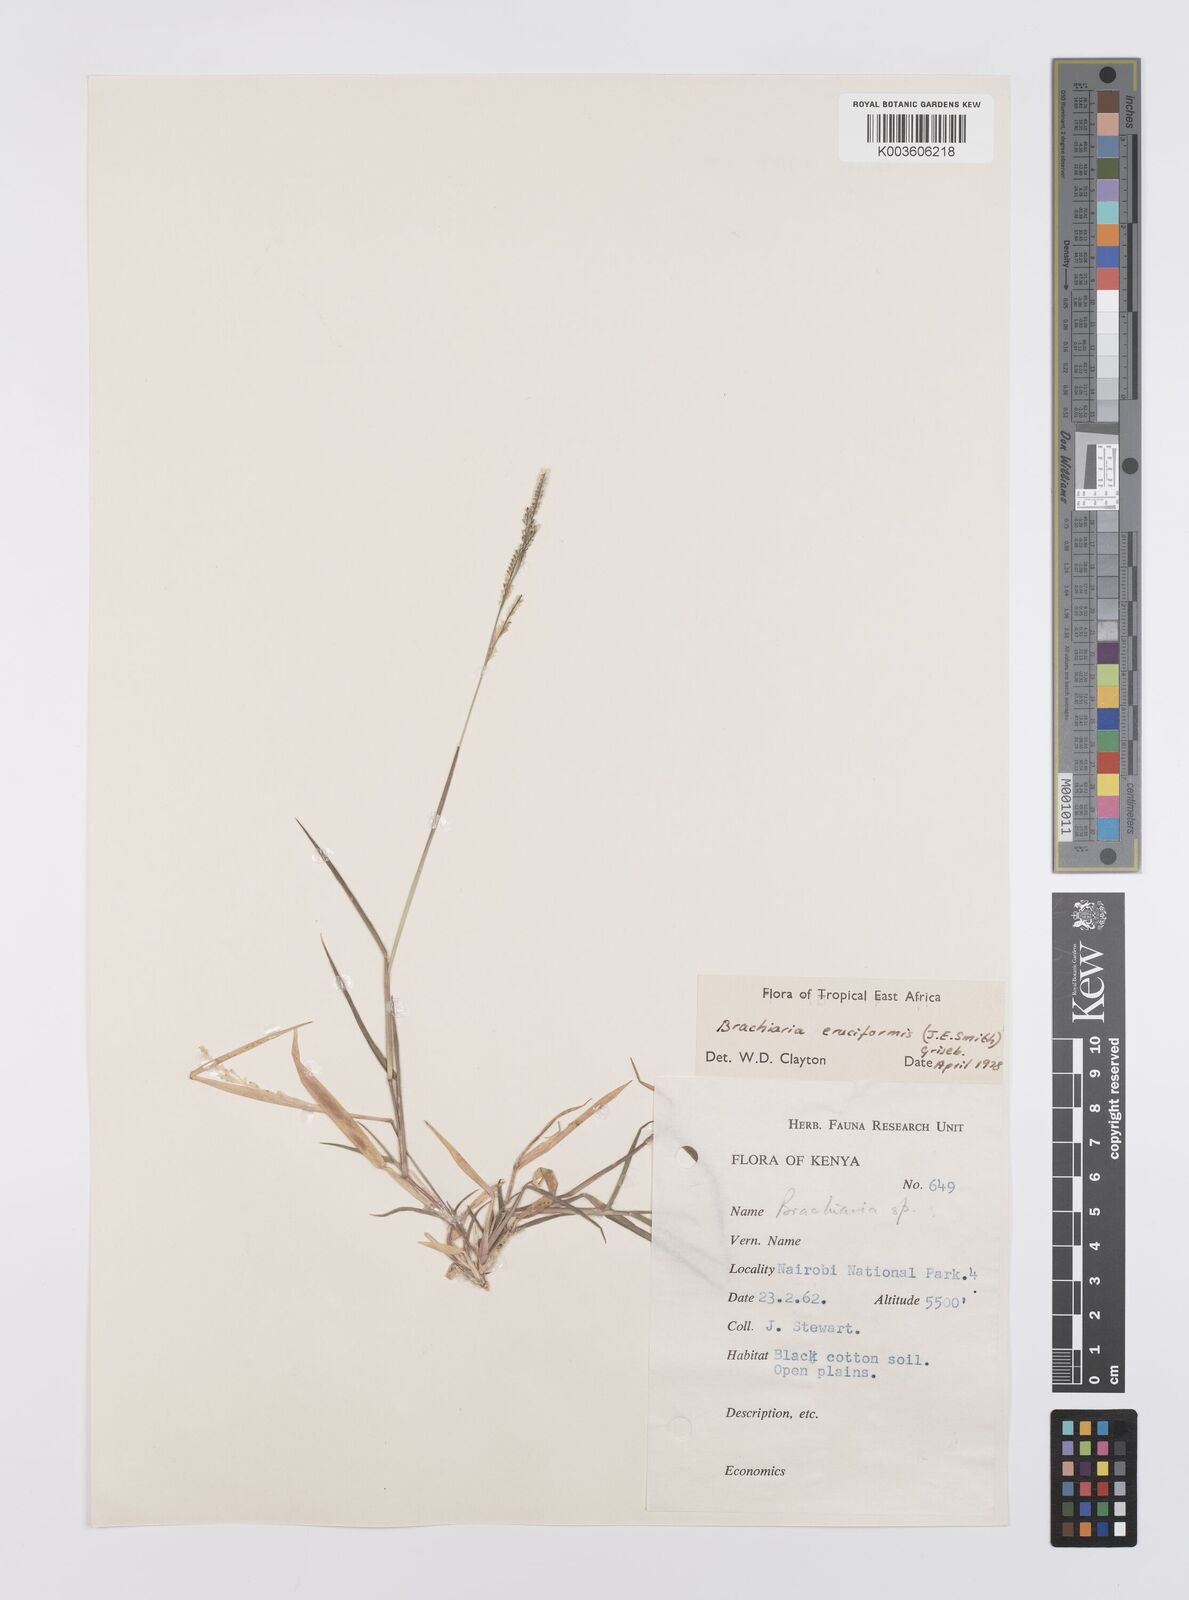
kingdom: Plantae
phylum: Tracheophyta
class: Liliopsida
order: Poales
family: Poaceae
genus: Moorochloa
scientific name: Moorochloa eruciformis
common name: Sweet signalgrass
